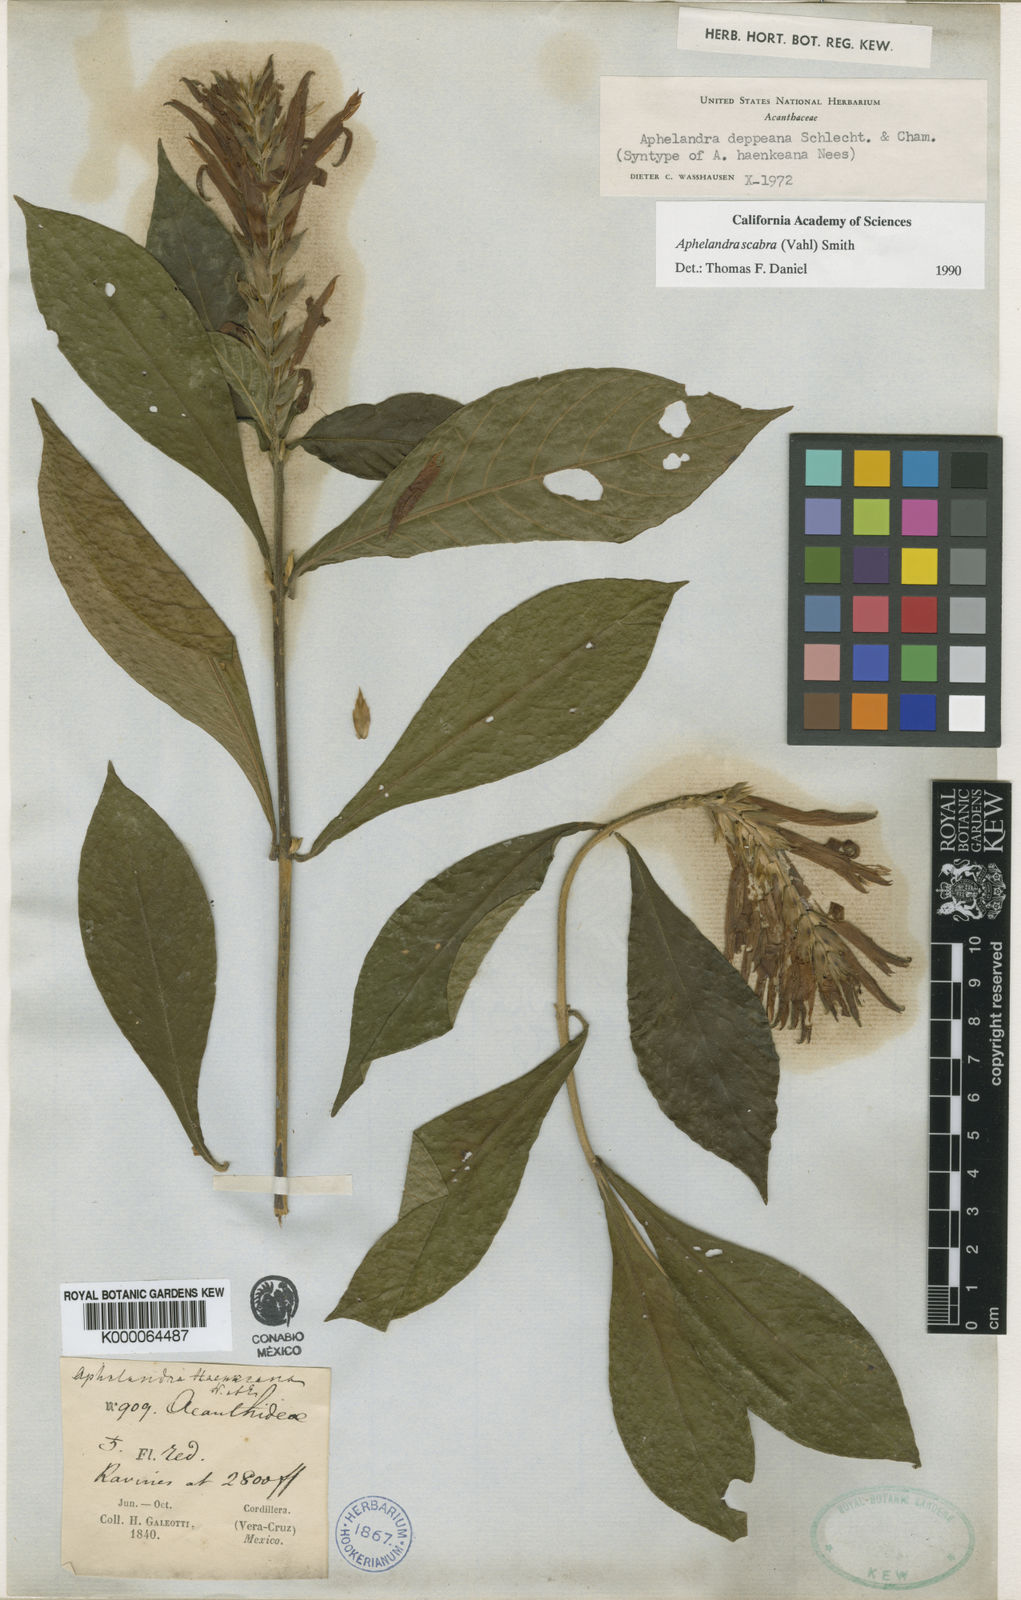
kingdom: Plantae
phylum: Tracheophyta
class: Magnoliopsida
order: Lamiales
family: Acanthaceae
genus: Aphelandra
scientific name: Aphelandra scabra
